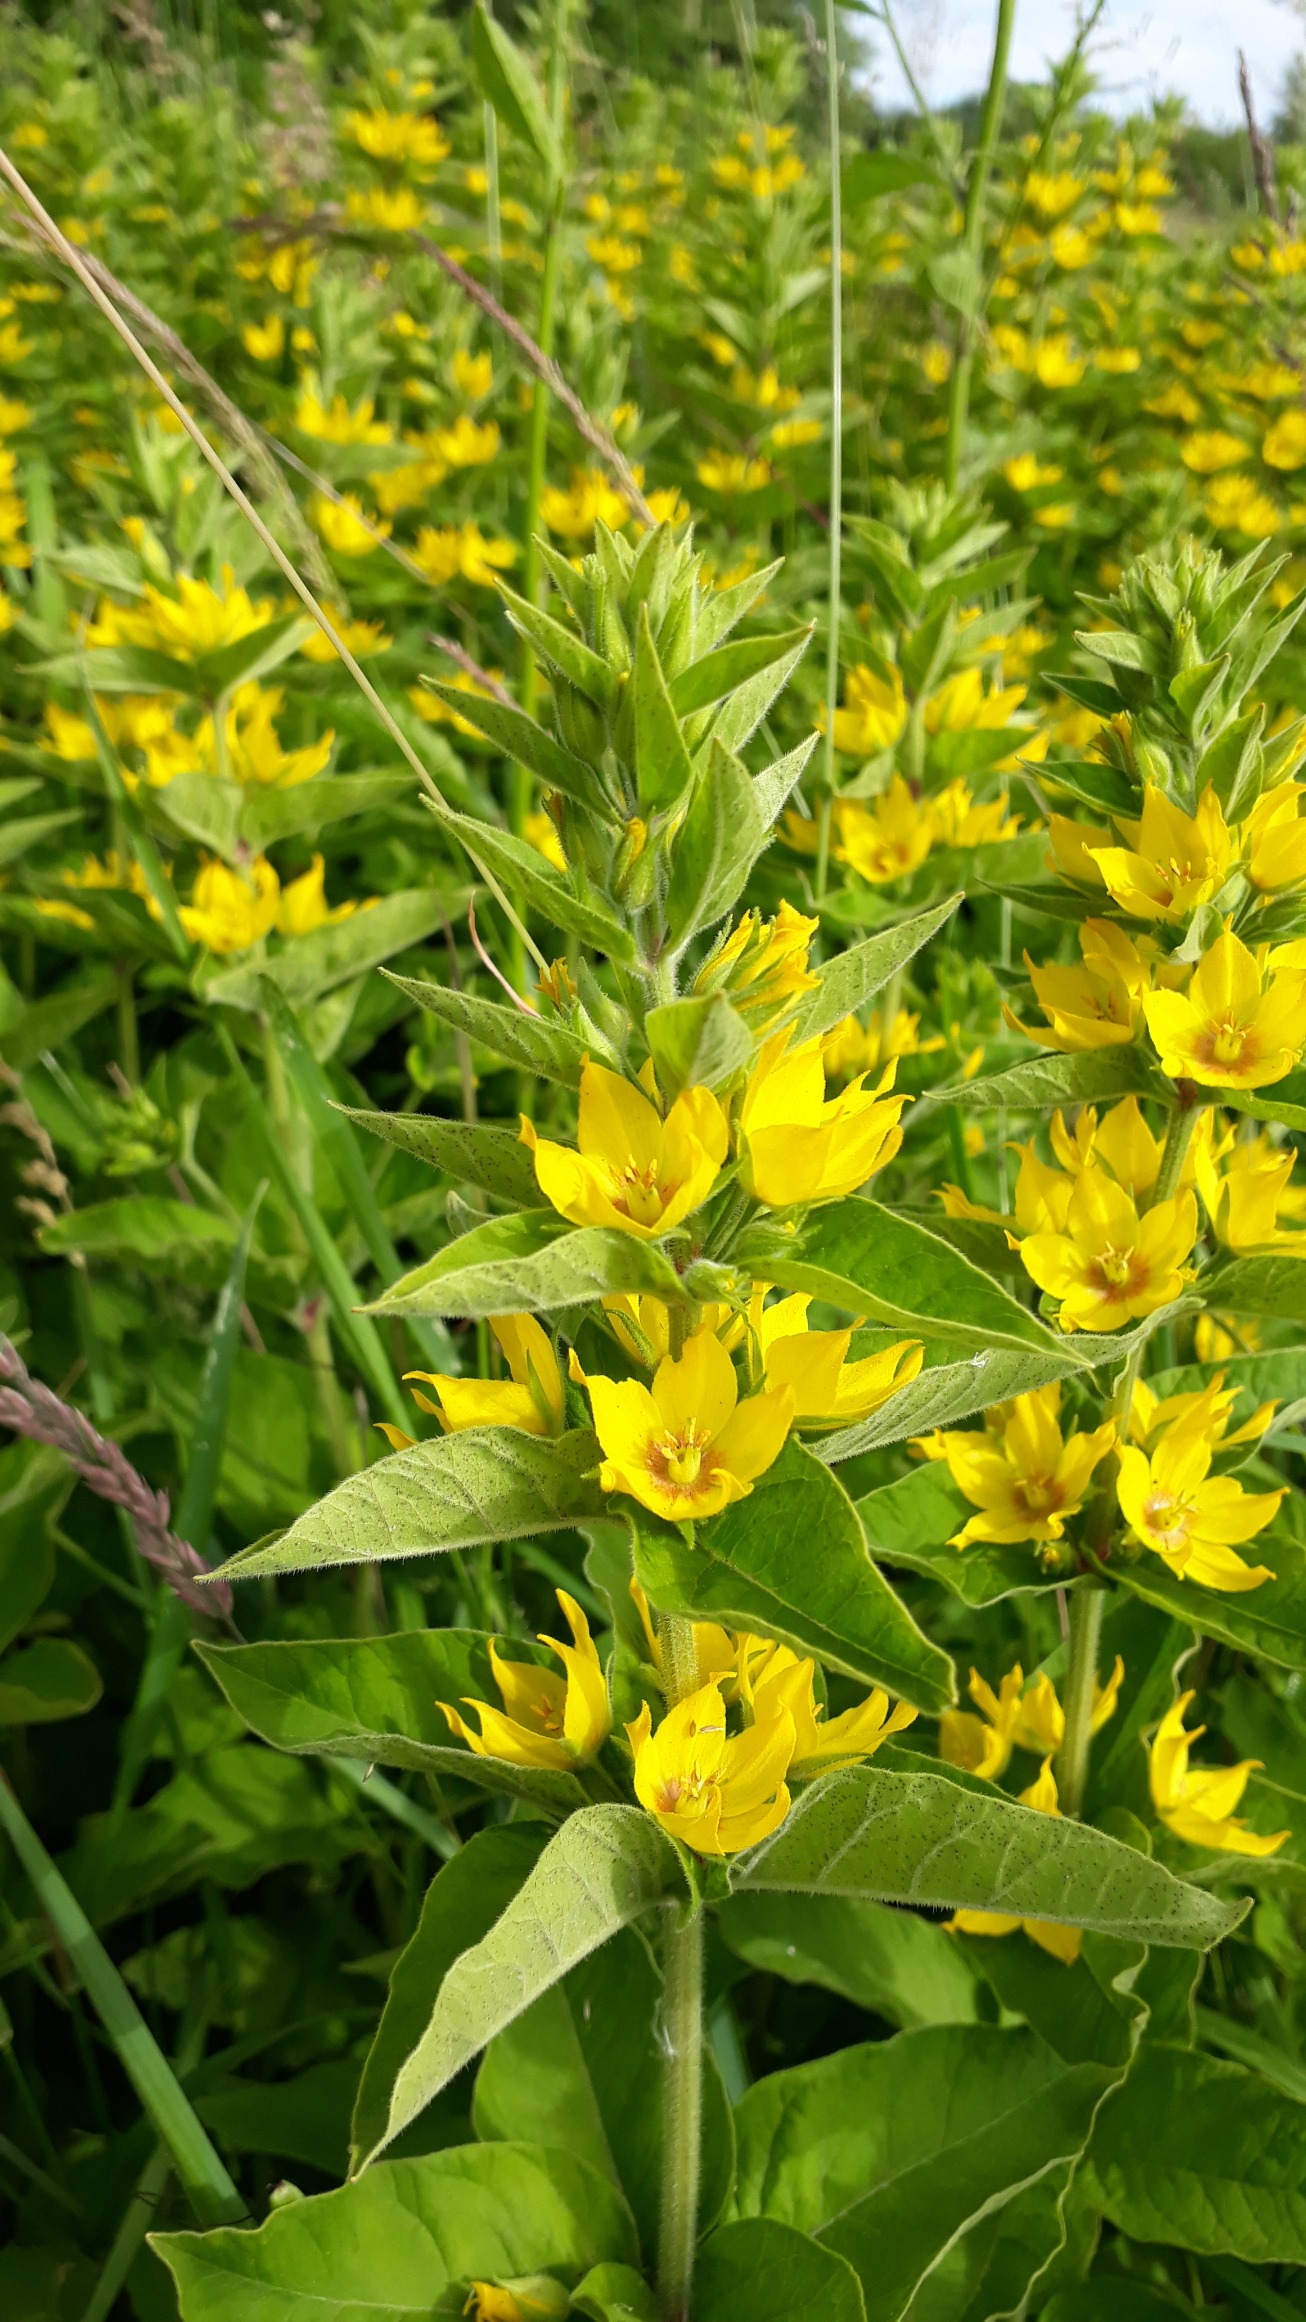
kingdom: Plantae
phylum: Tracheophyta
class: Magnoliopsida
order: Ericales
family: Primulaceae
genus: Lysimachia
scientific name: Lysimachia punctata
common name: Prikbladet fredløs
